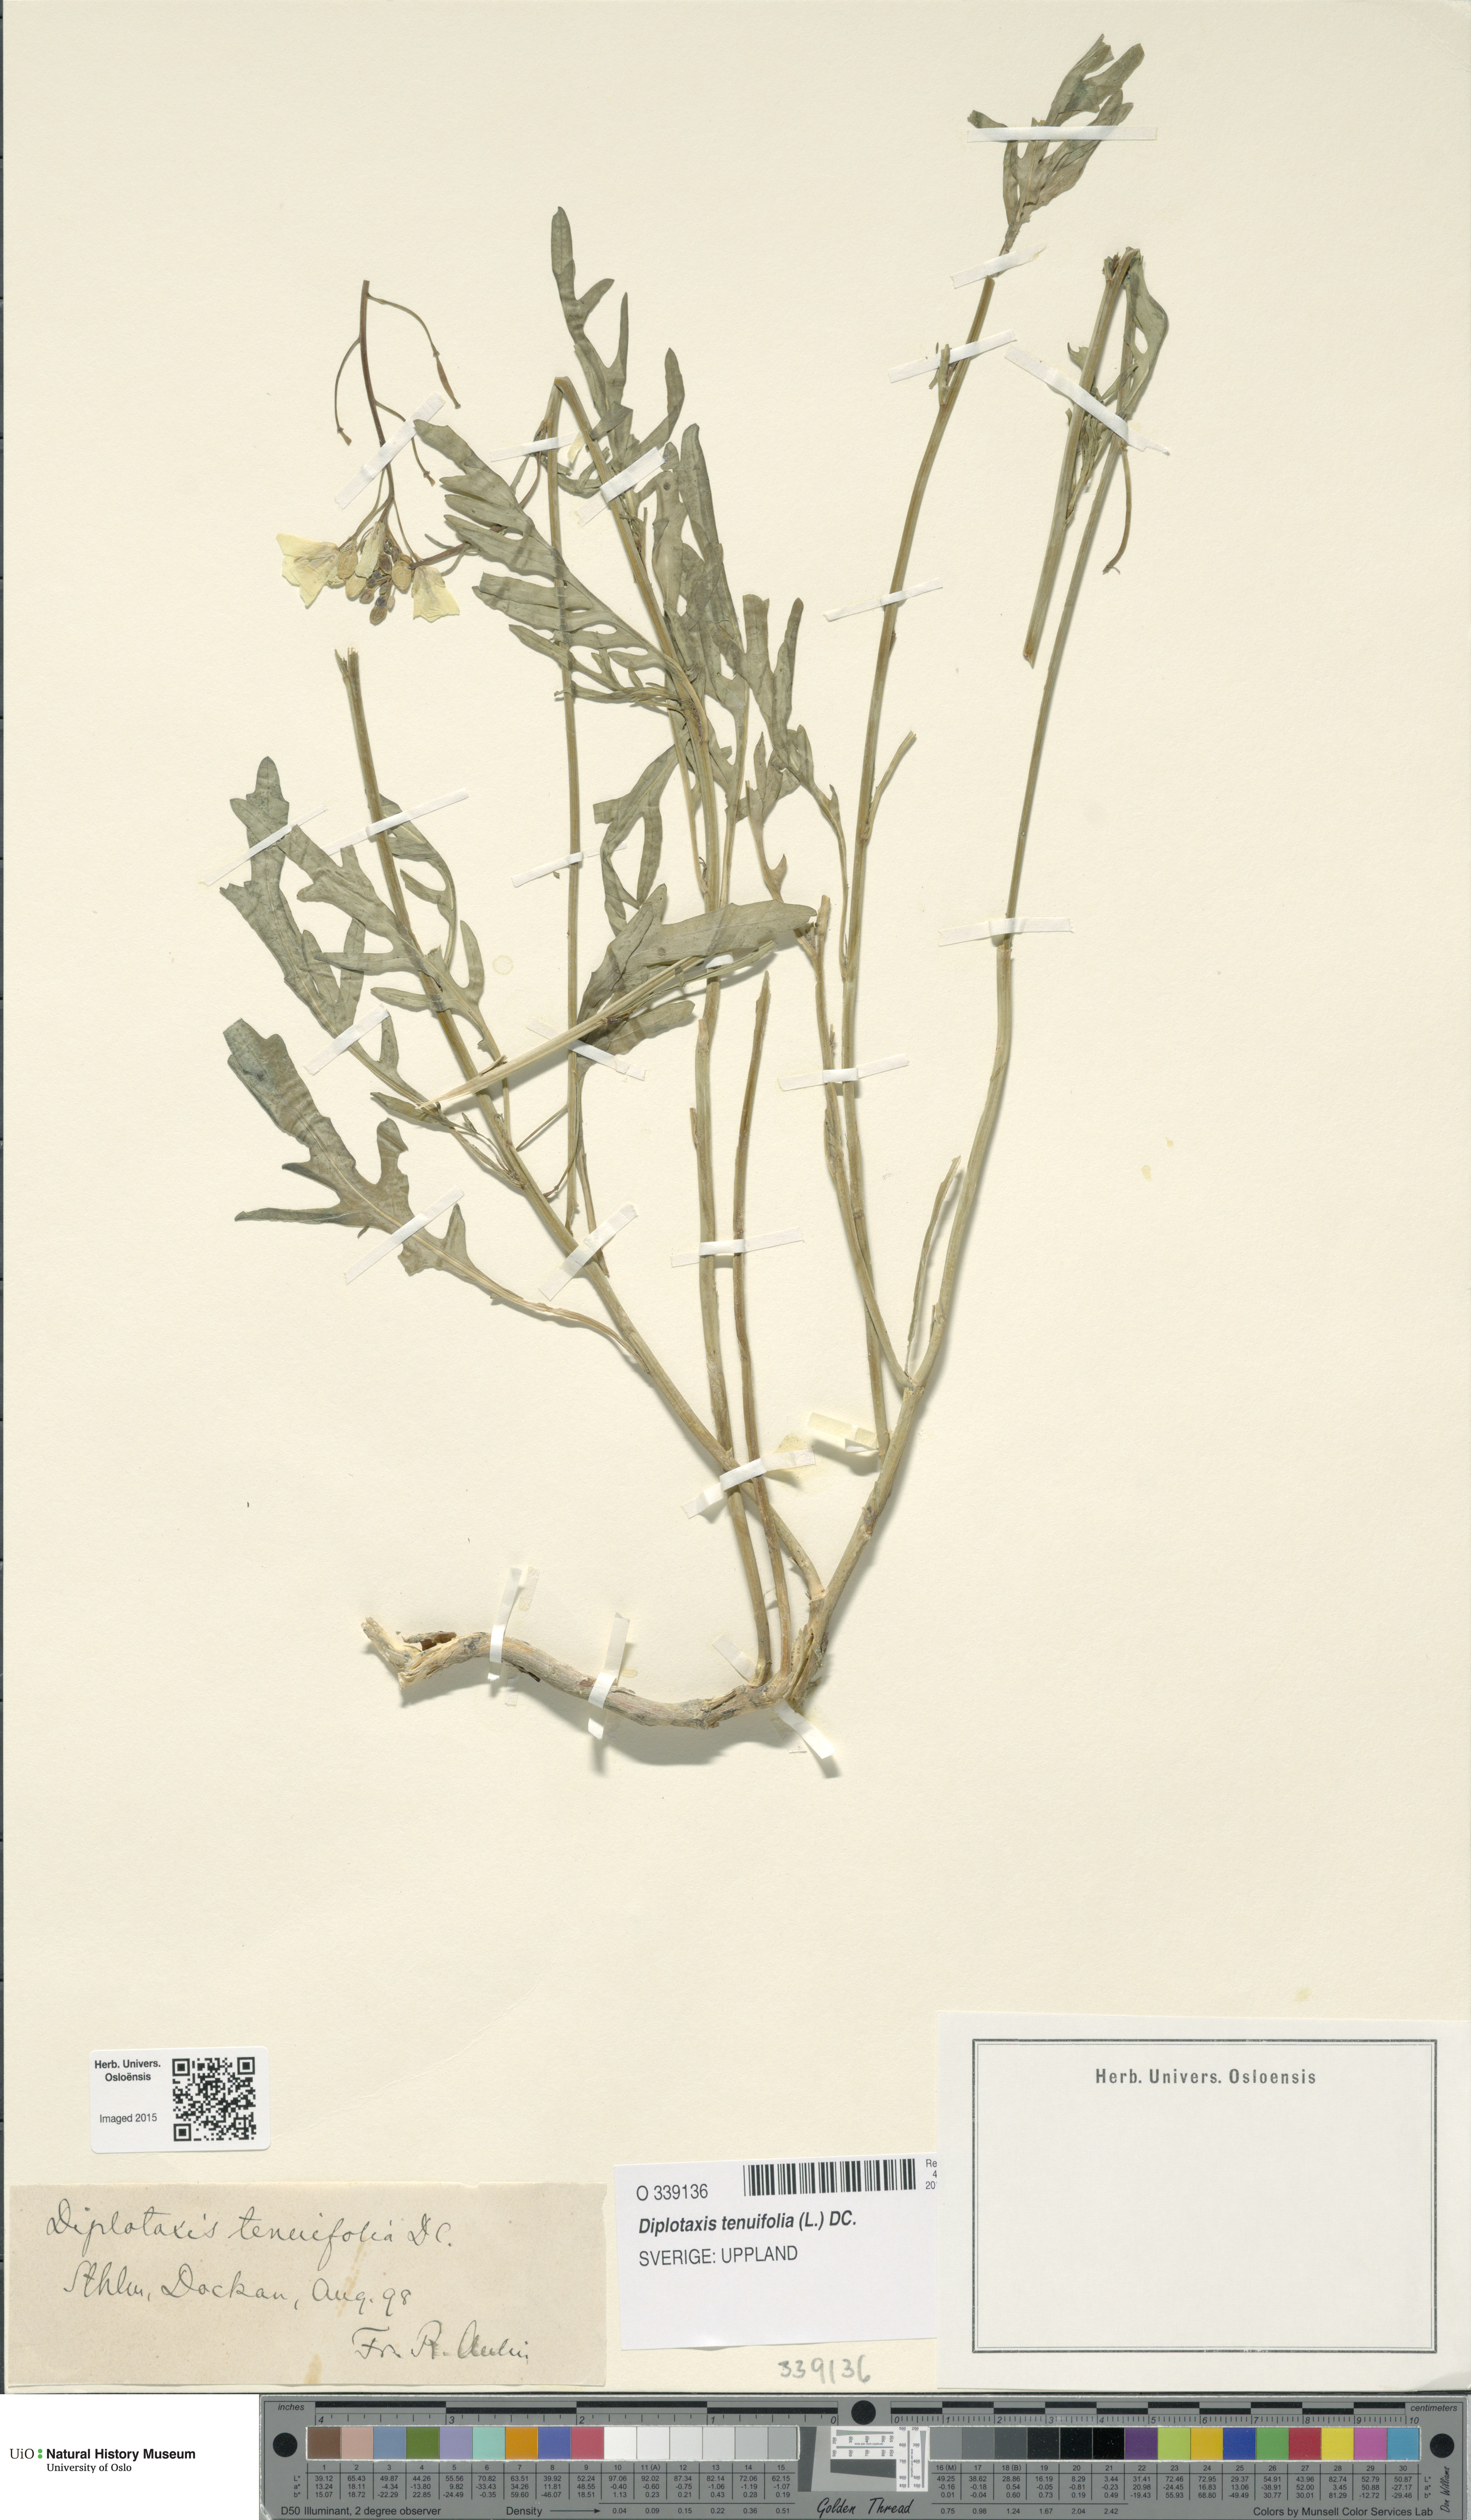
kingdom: Plantae
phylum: Tracheophyta
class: Magnoliopsida
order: Brassicales
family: Brassicaceae
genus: Diplotaxis
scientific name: Diplotaxis tenuifolia
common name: Perennial wall-rocket
